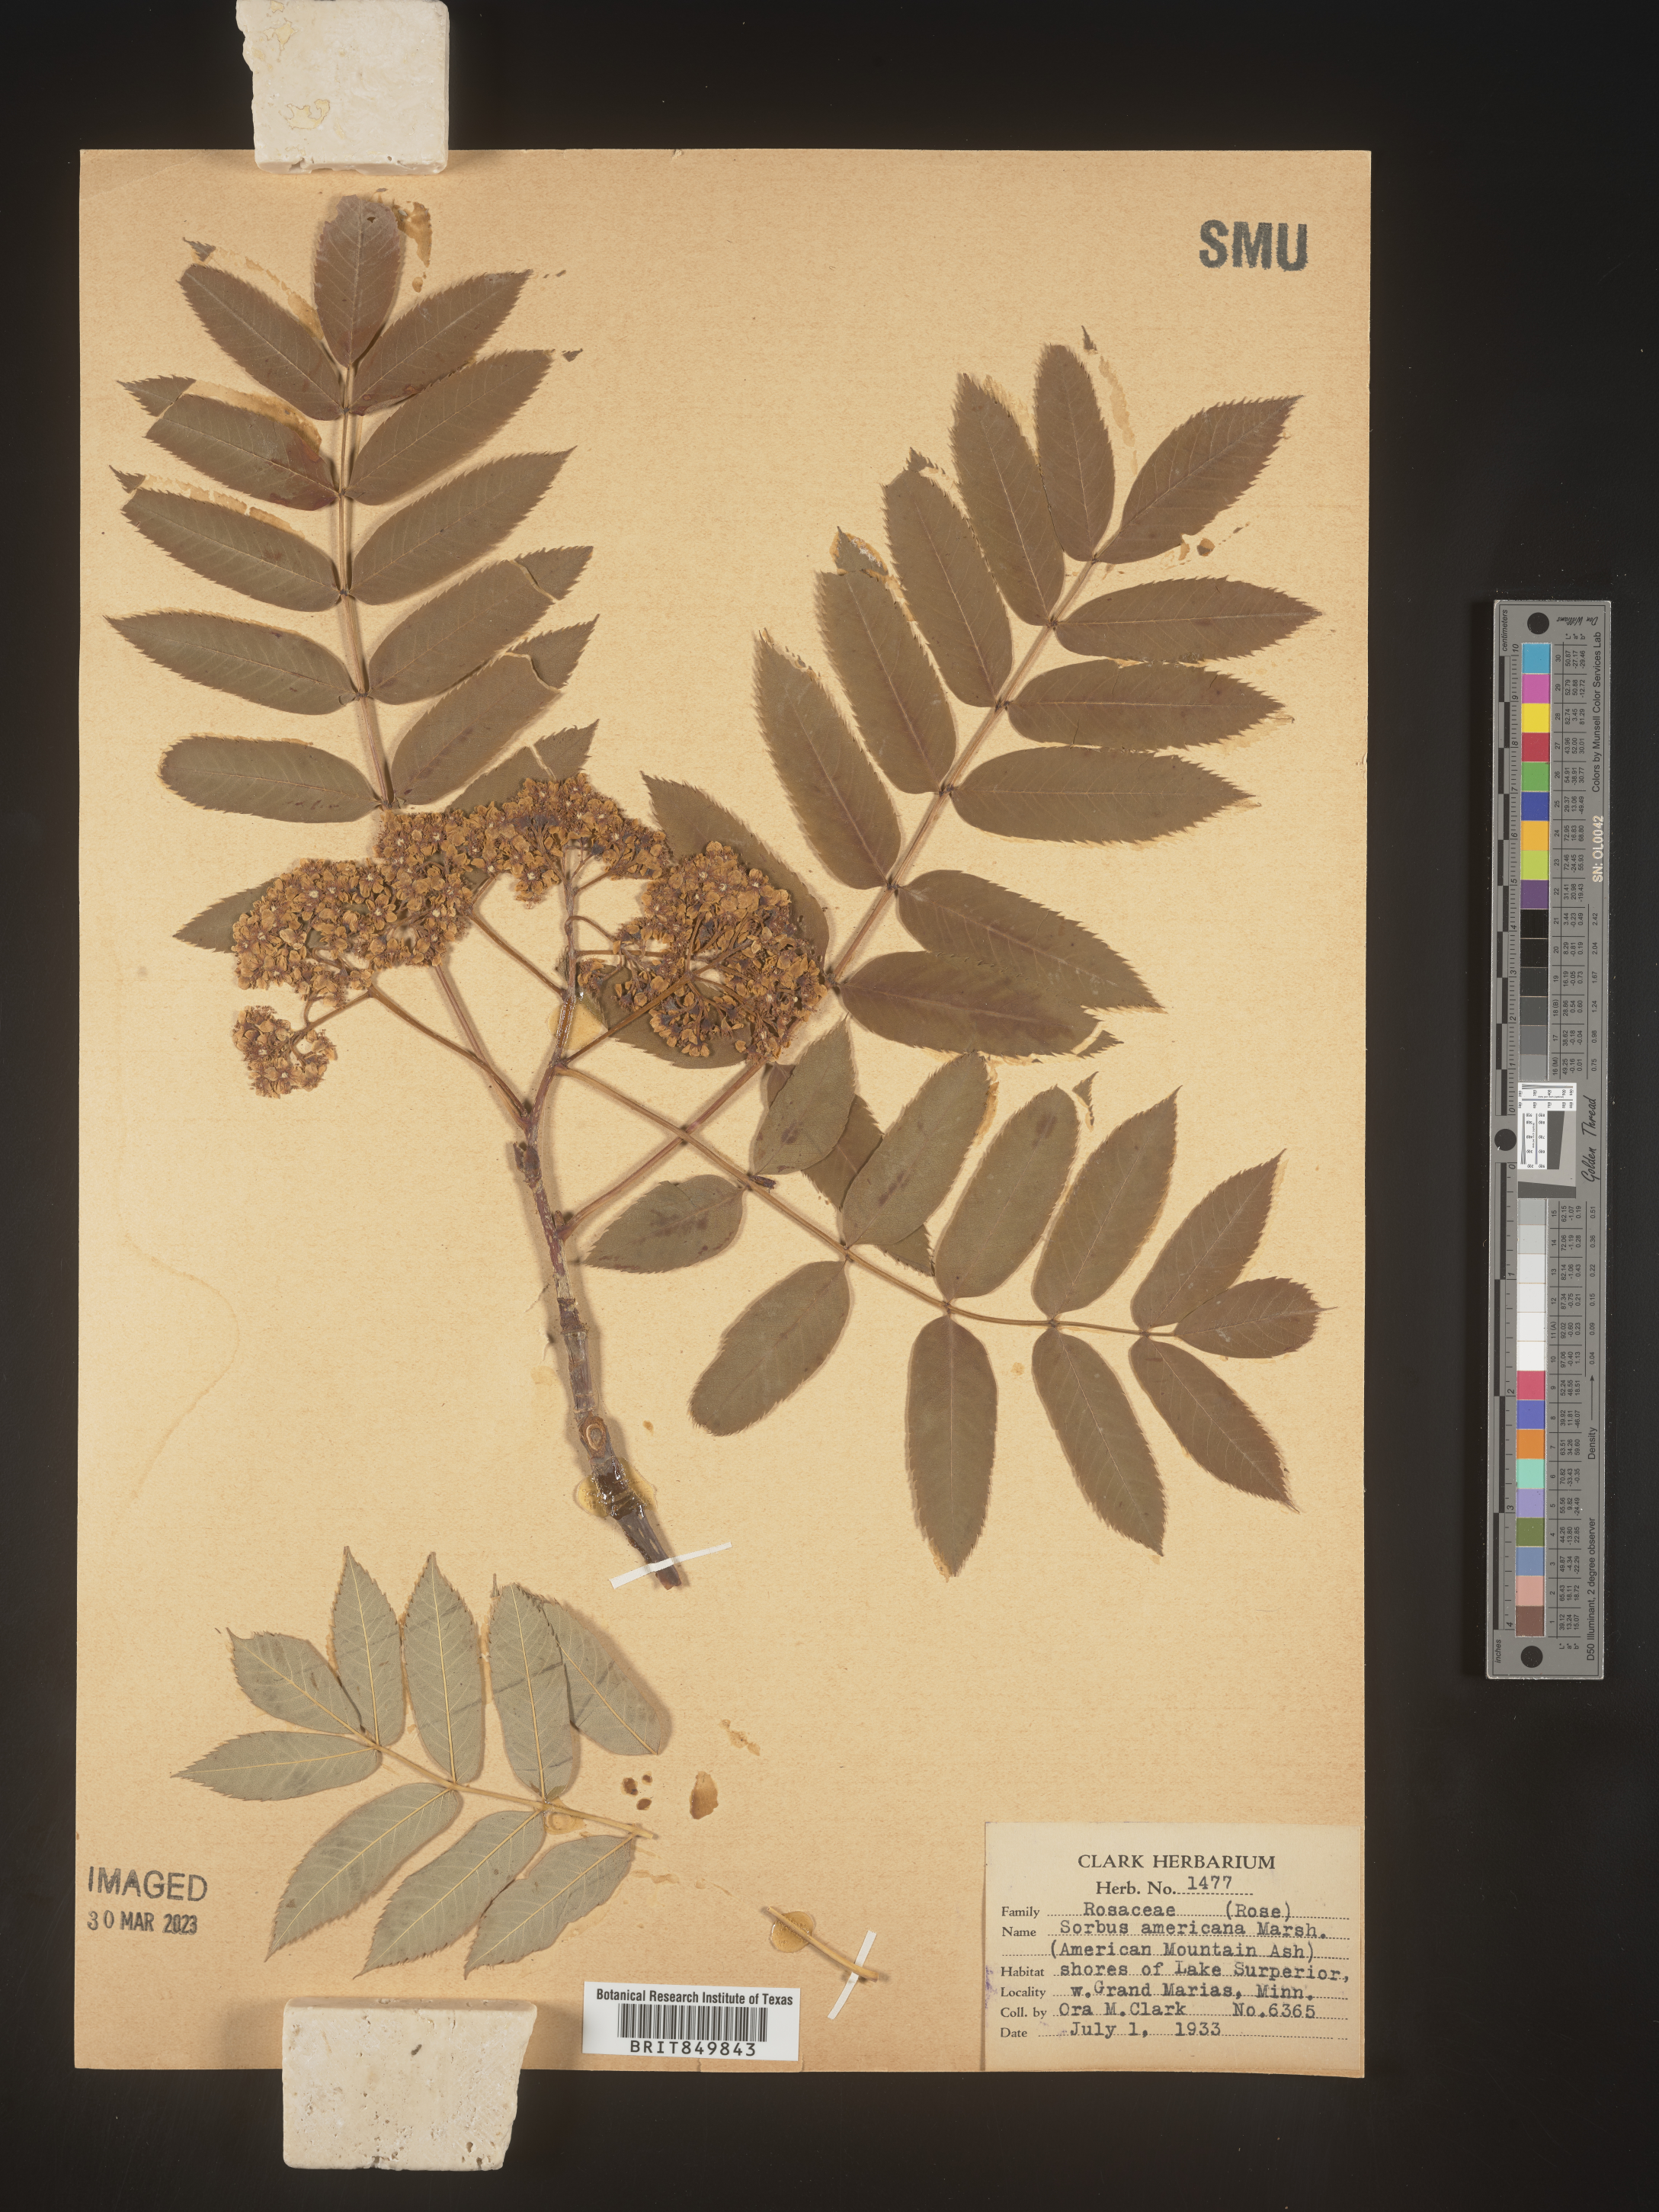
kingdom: Plantae
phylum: Tracheophyta
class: Magnoliopsida
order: Rosales
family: Rosaceae
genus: Sorbus
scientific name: Sorbus
